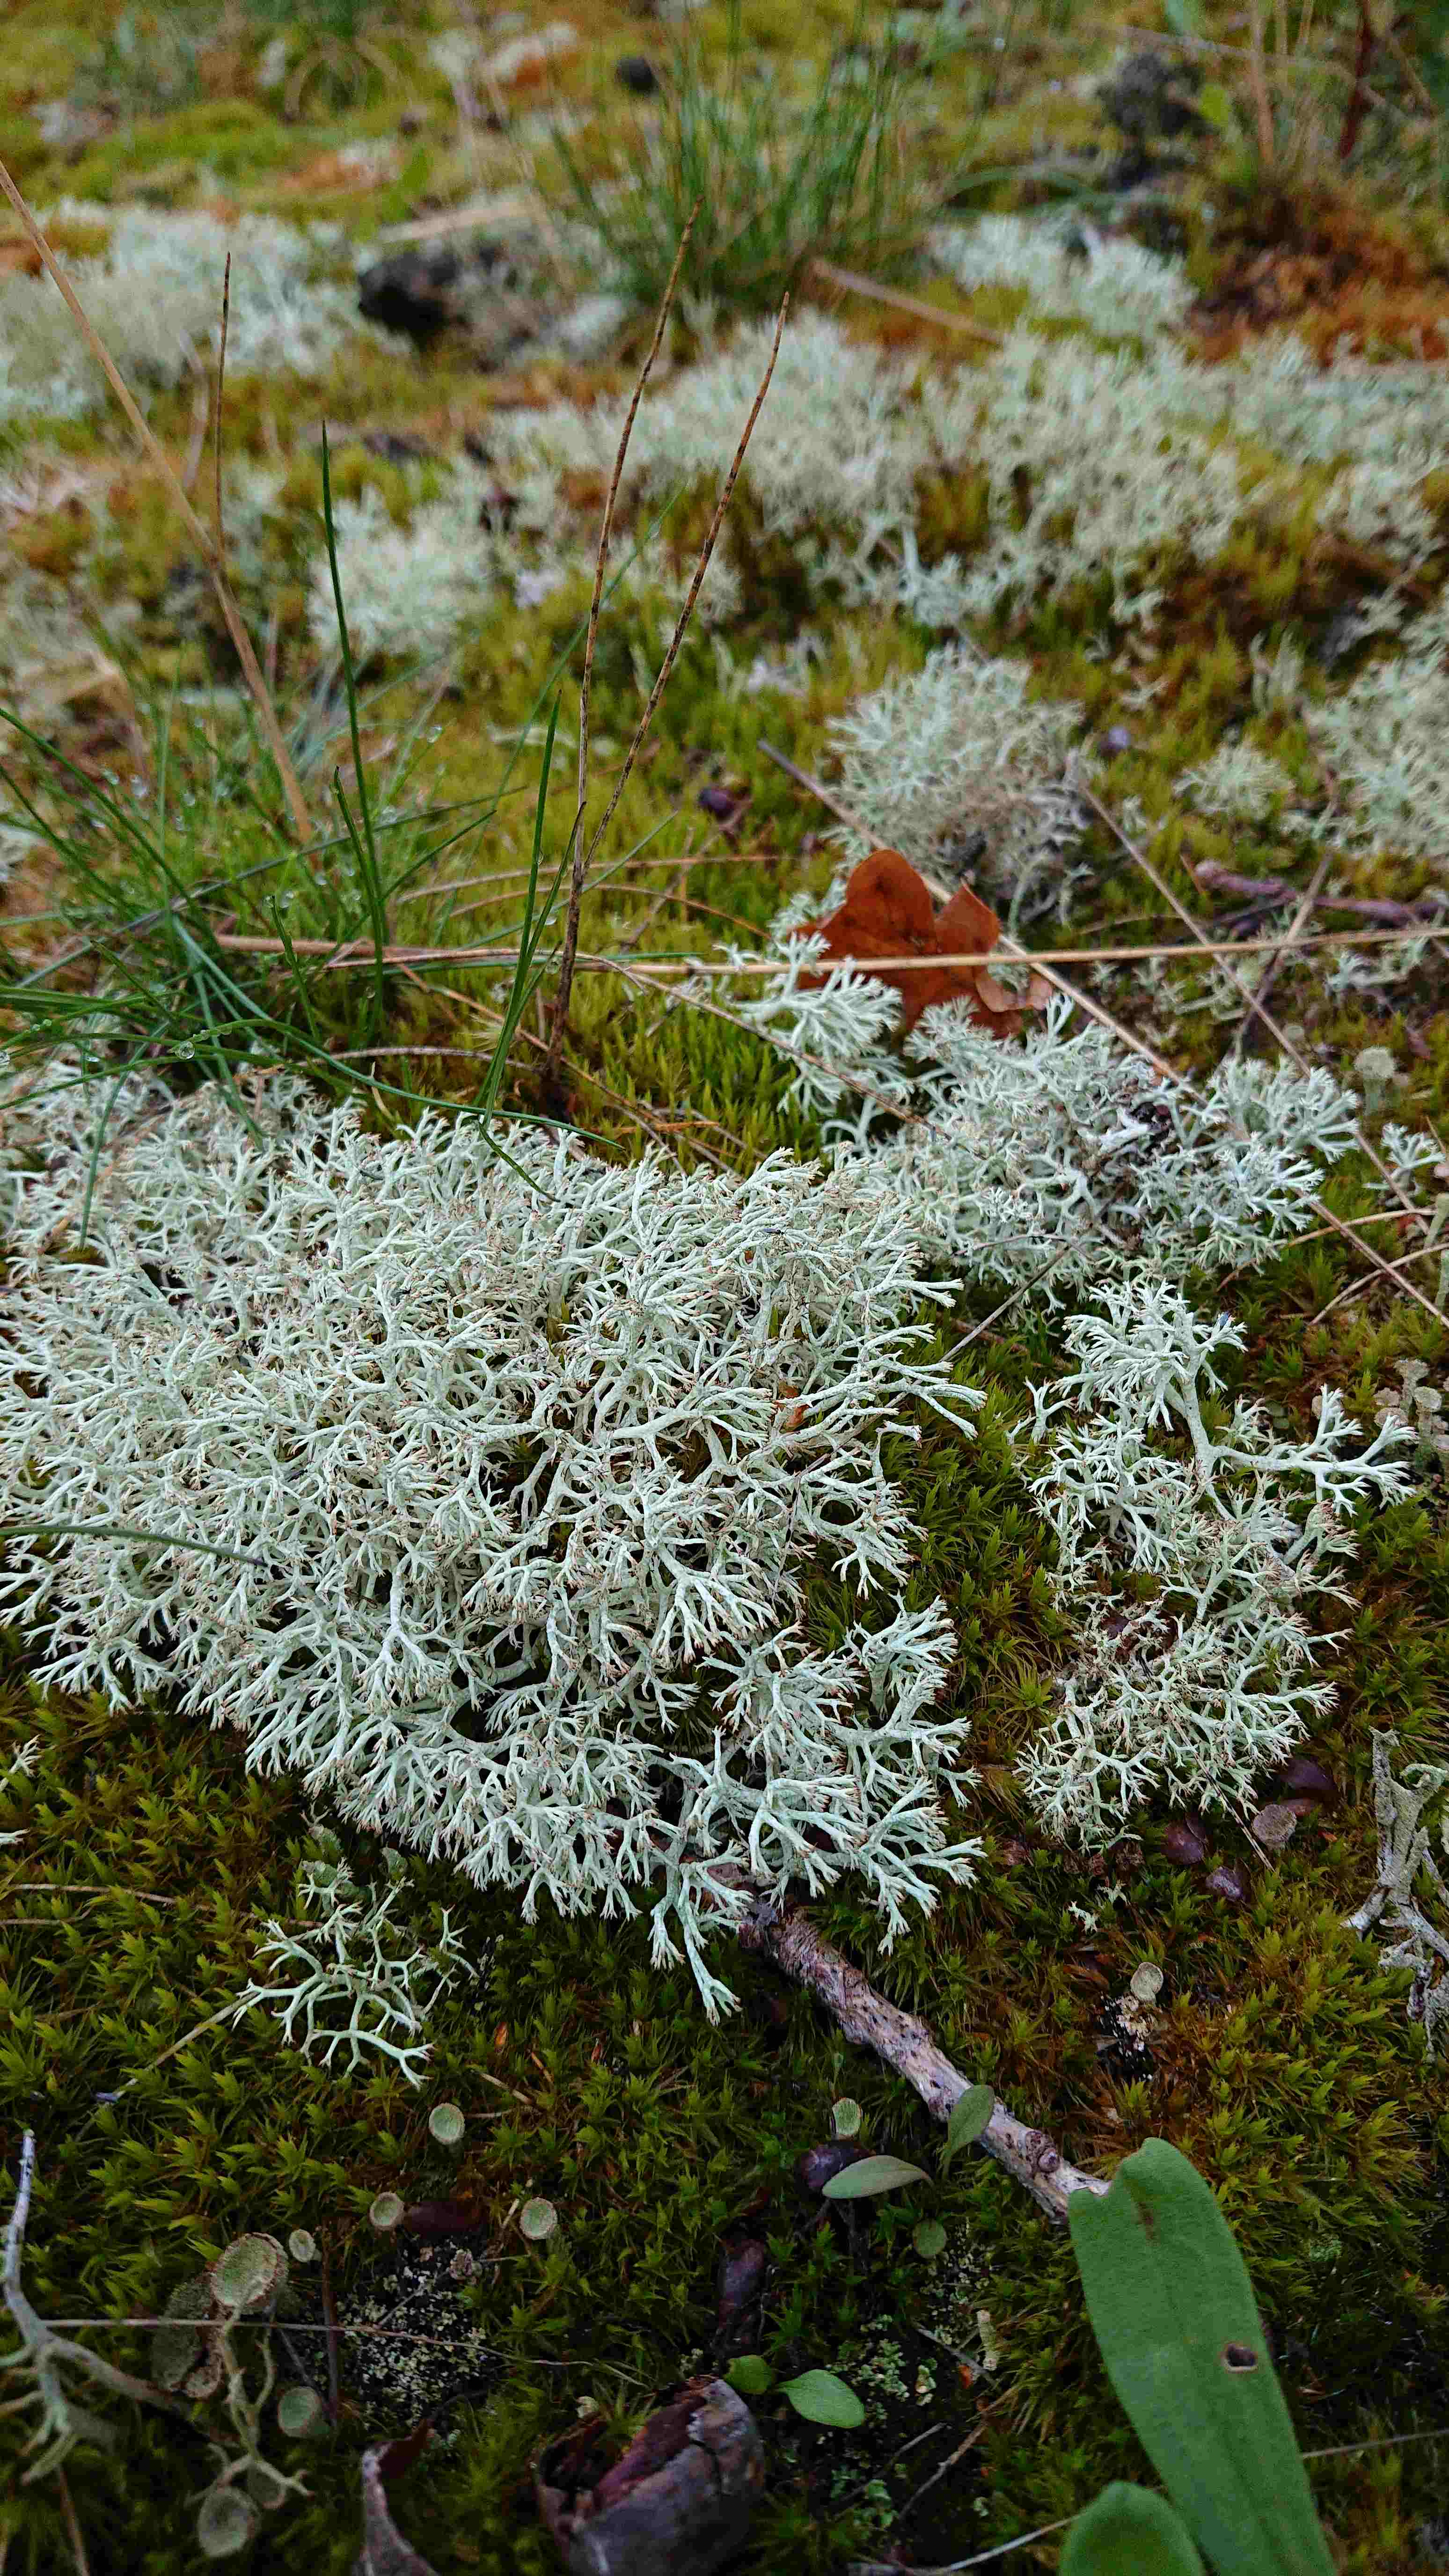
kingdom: Fungi
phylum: Ascomycota
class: Lecanoromycetes
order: Lecanorales
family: Cladoniaceae
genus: Cladonia
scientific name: Cladonia
